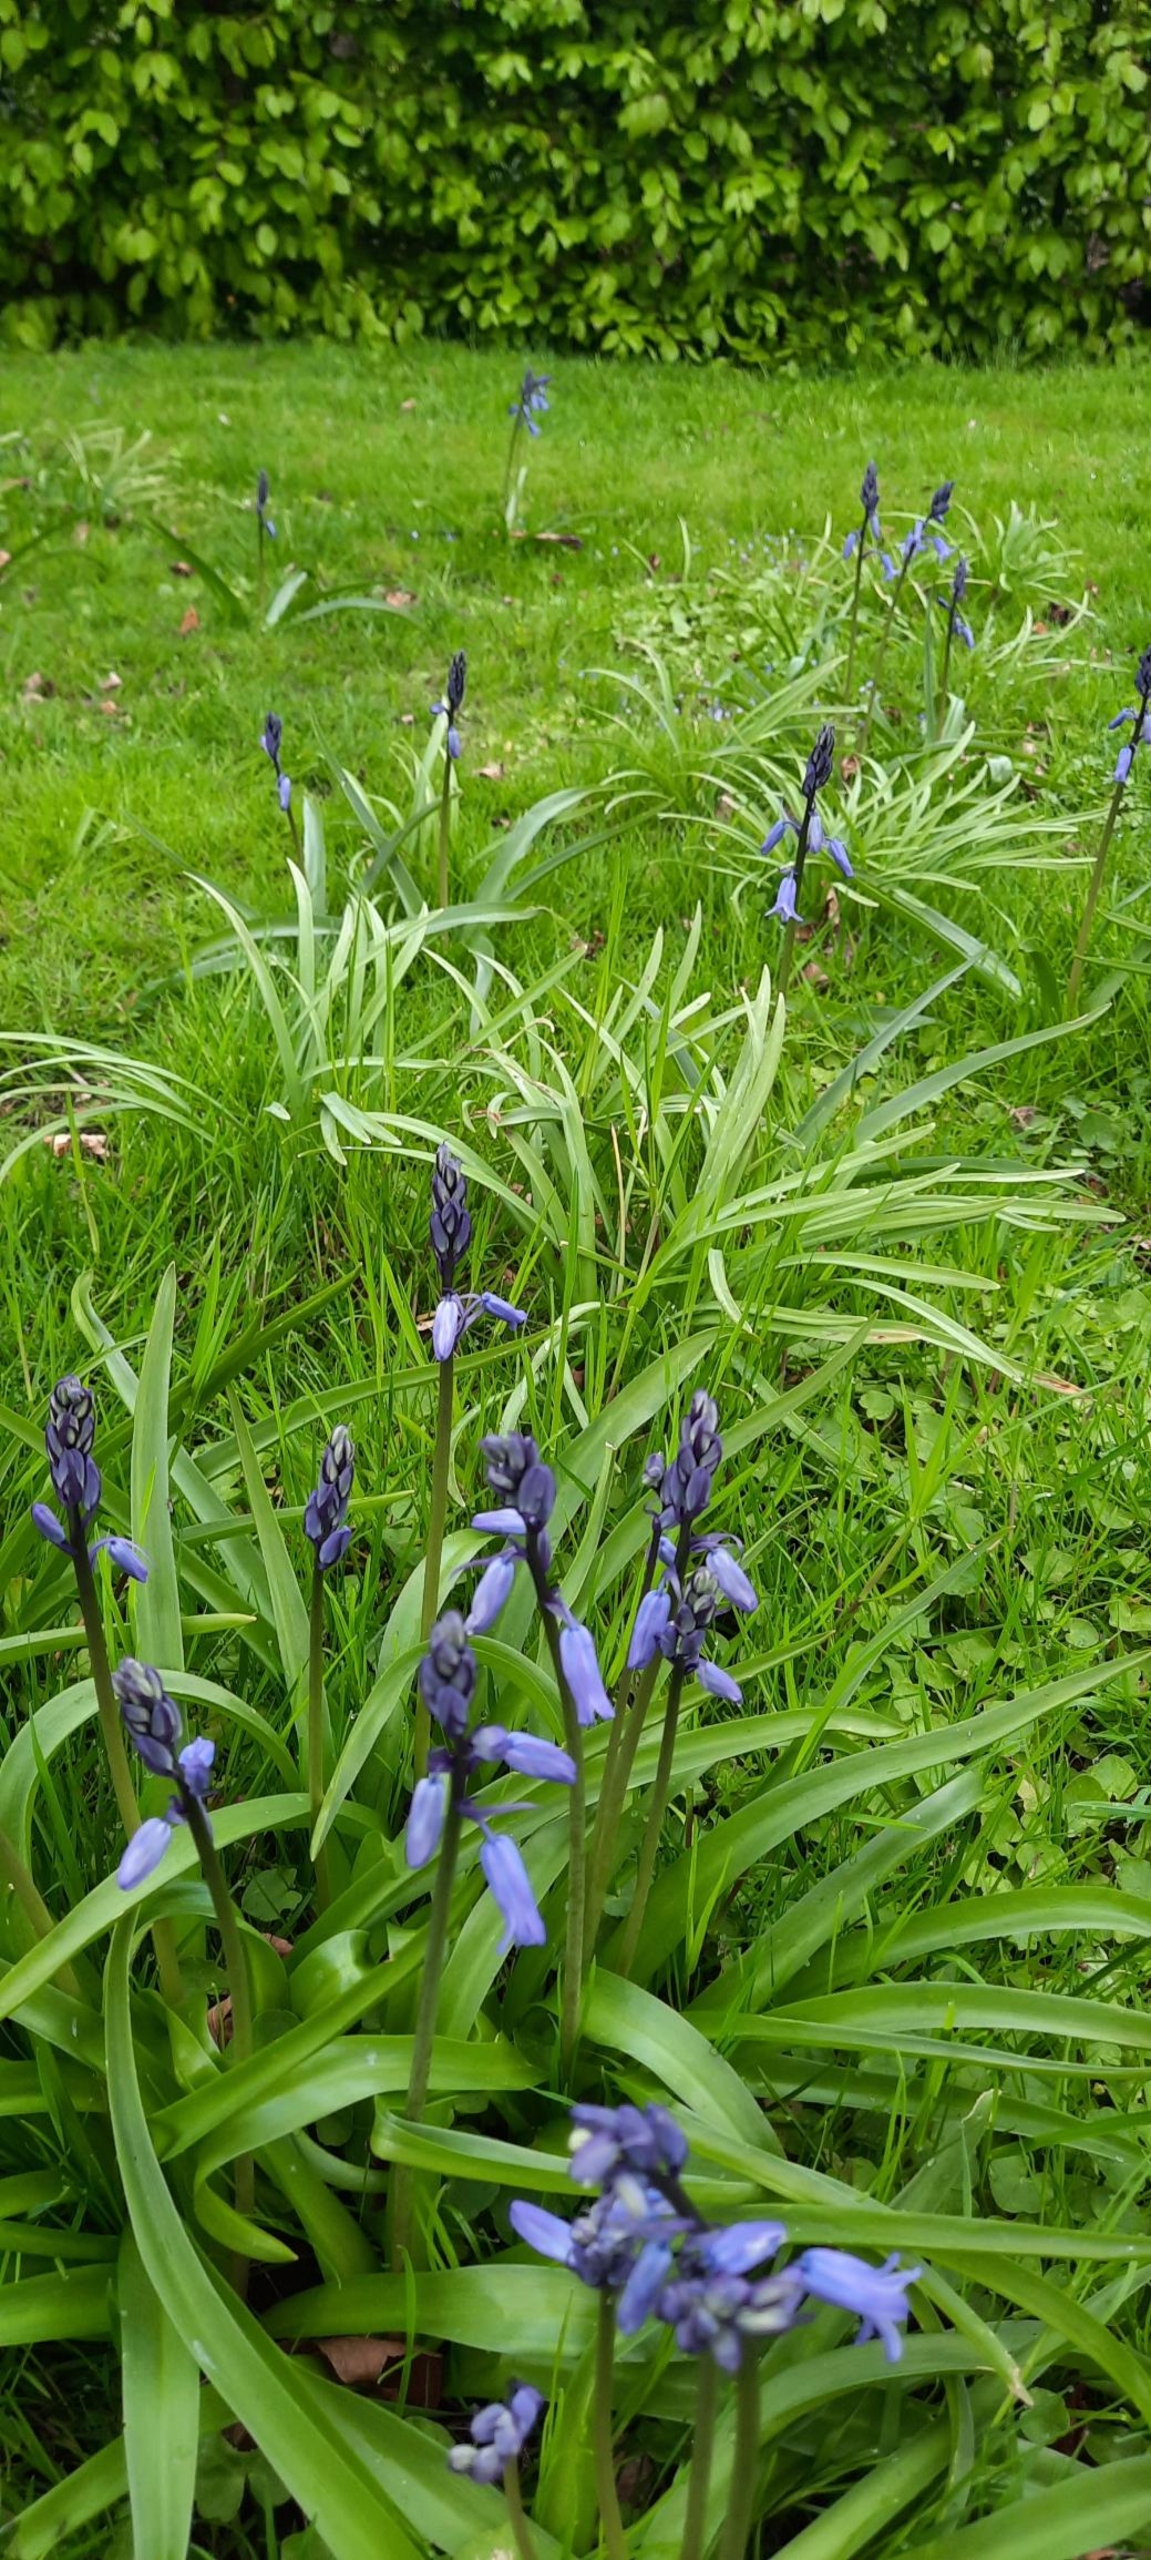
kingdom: Plantae
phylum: Tracheophyta
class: Liliopsida
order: Asparagales
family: Asparagaceae
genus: Hyacinthoides
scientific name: Hyacinthoides massartiana
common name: Hybrid-klokkeskilla
